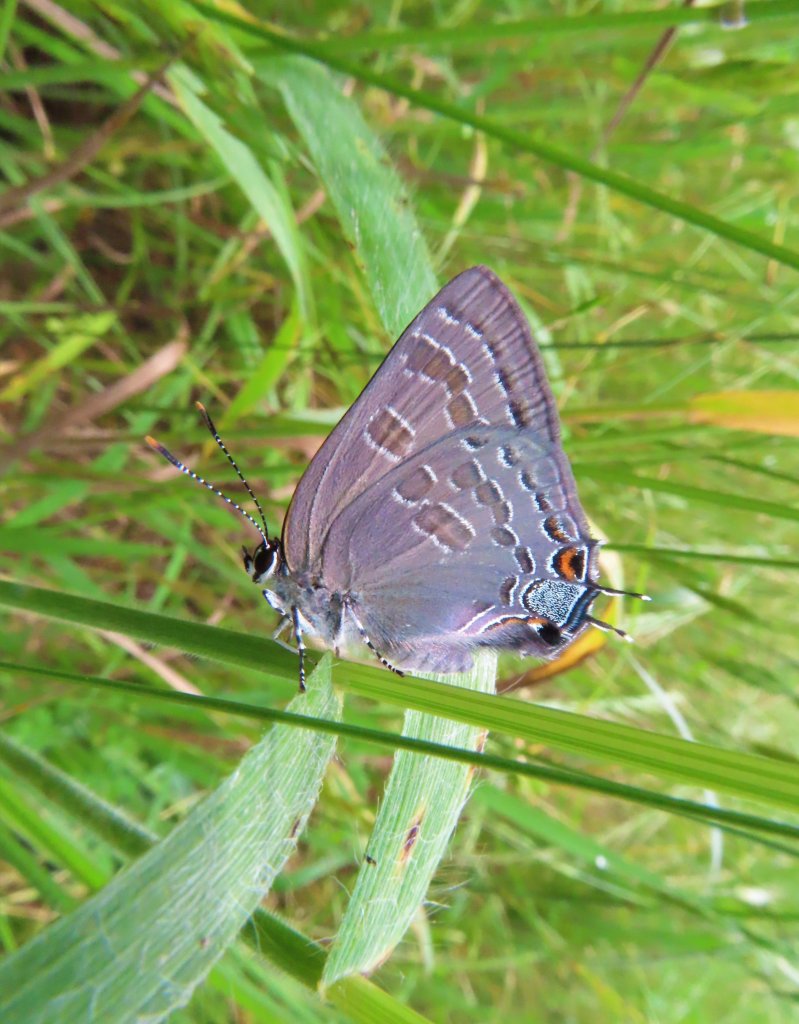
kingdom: Animalia
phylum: Arthropoda
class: Insecta
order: Lepidoptera
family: Lycaenidae
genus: Strymon
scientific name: Strymon caryaevorus
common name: Hickory Hairstreak
